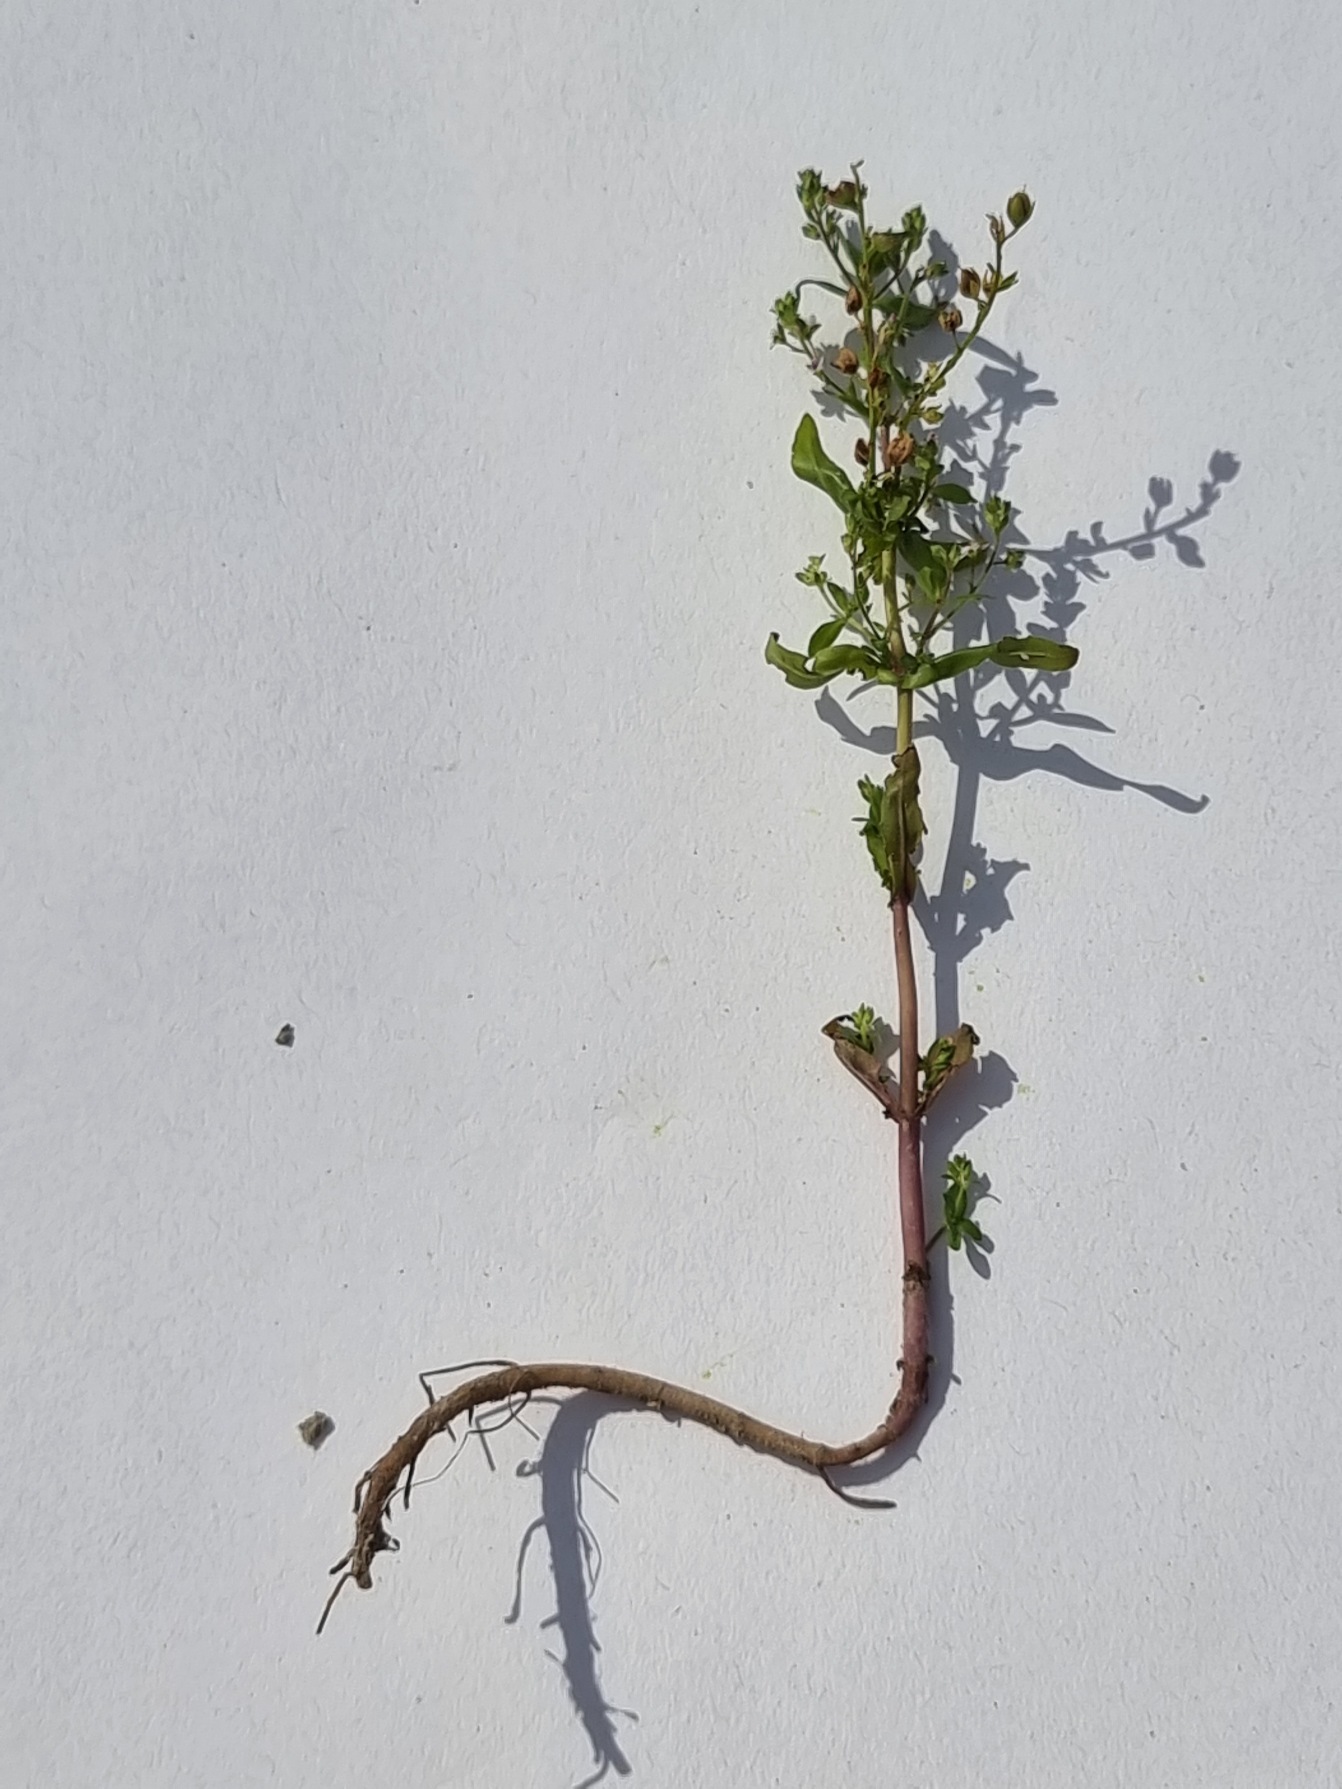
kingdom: Plantae
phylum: Tracheophyta
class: Magnoliopsida
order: Lamiales
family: Plantaginaceae
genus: Veronica
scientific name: Veronica catenata
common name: Vand-ærenpris
